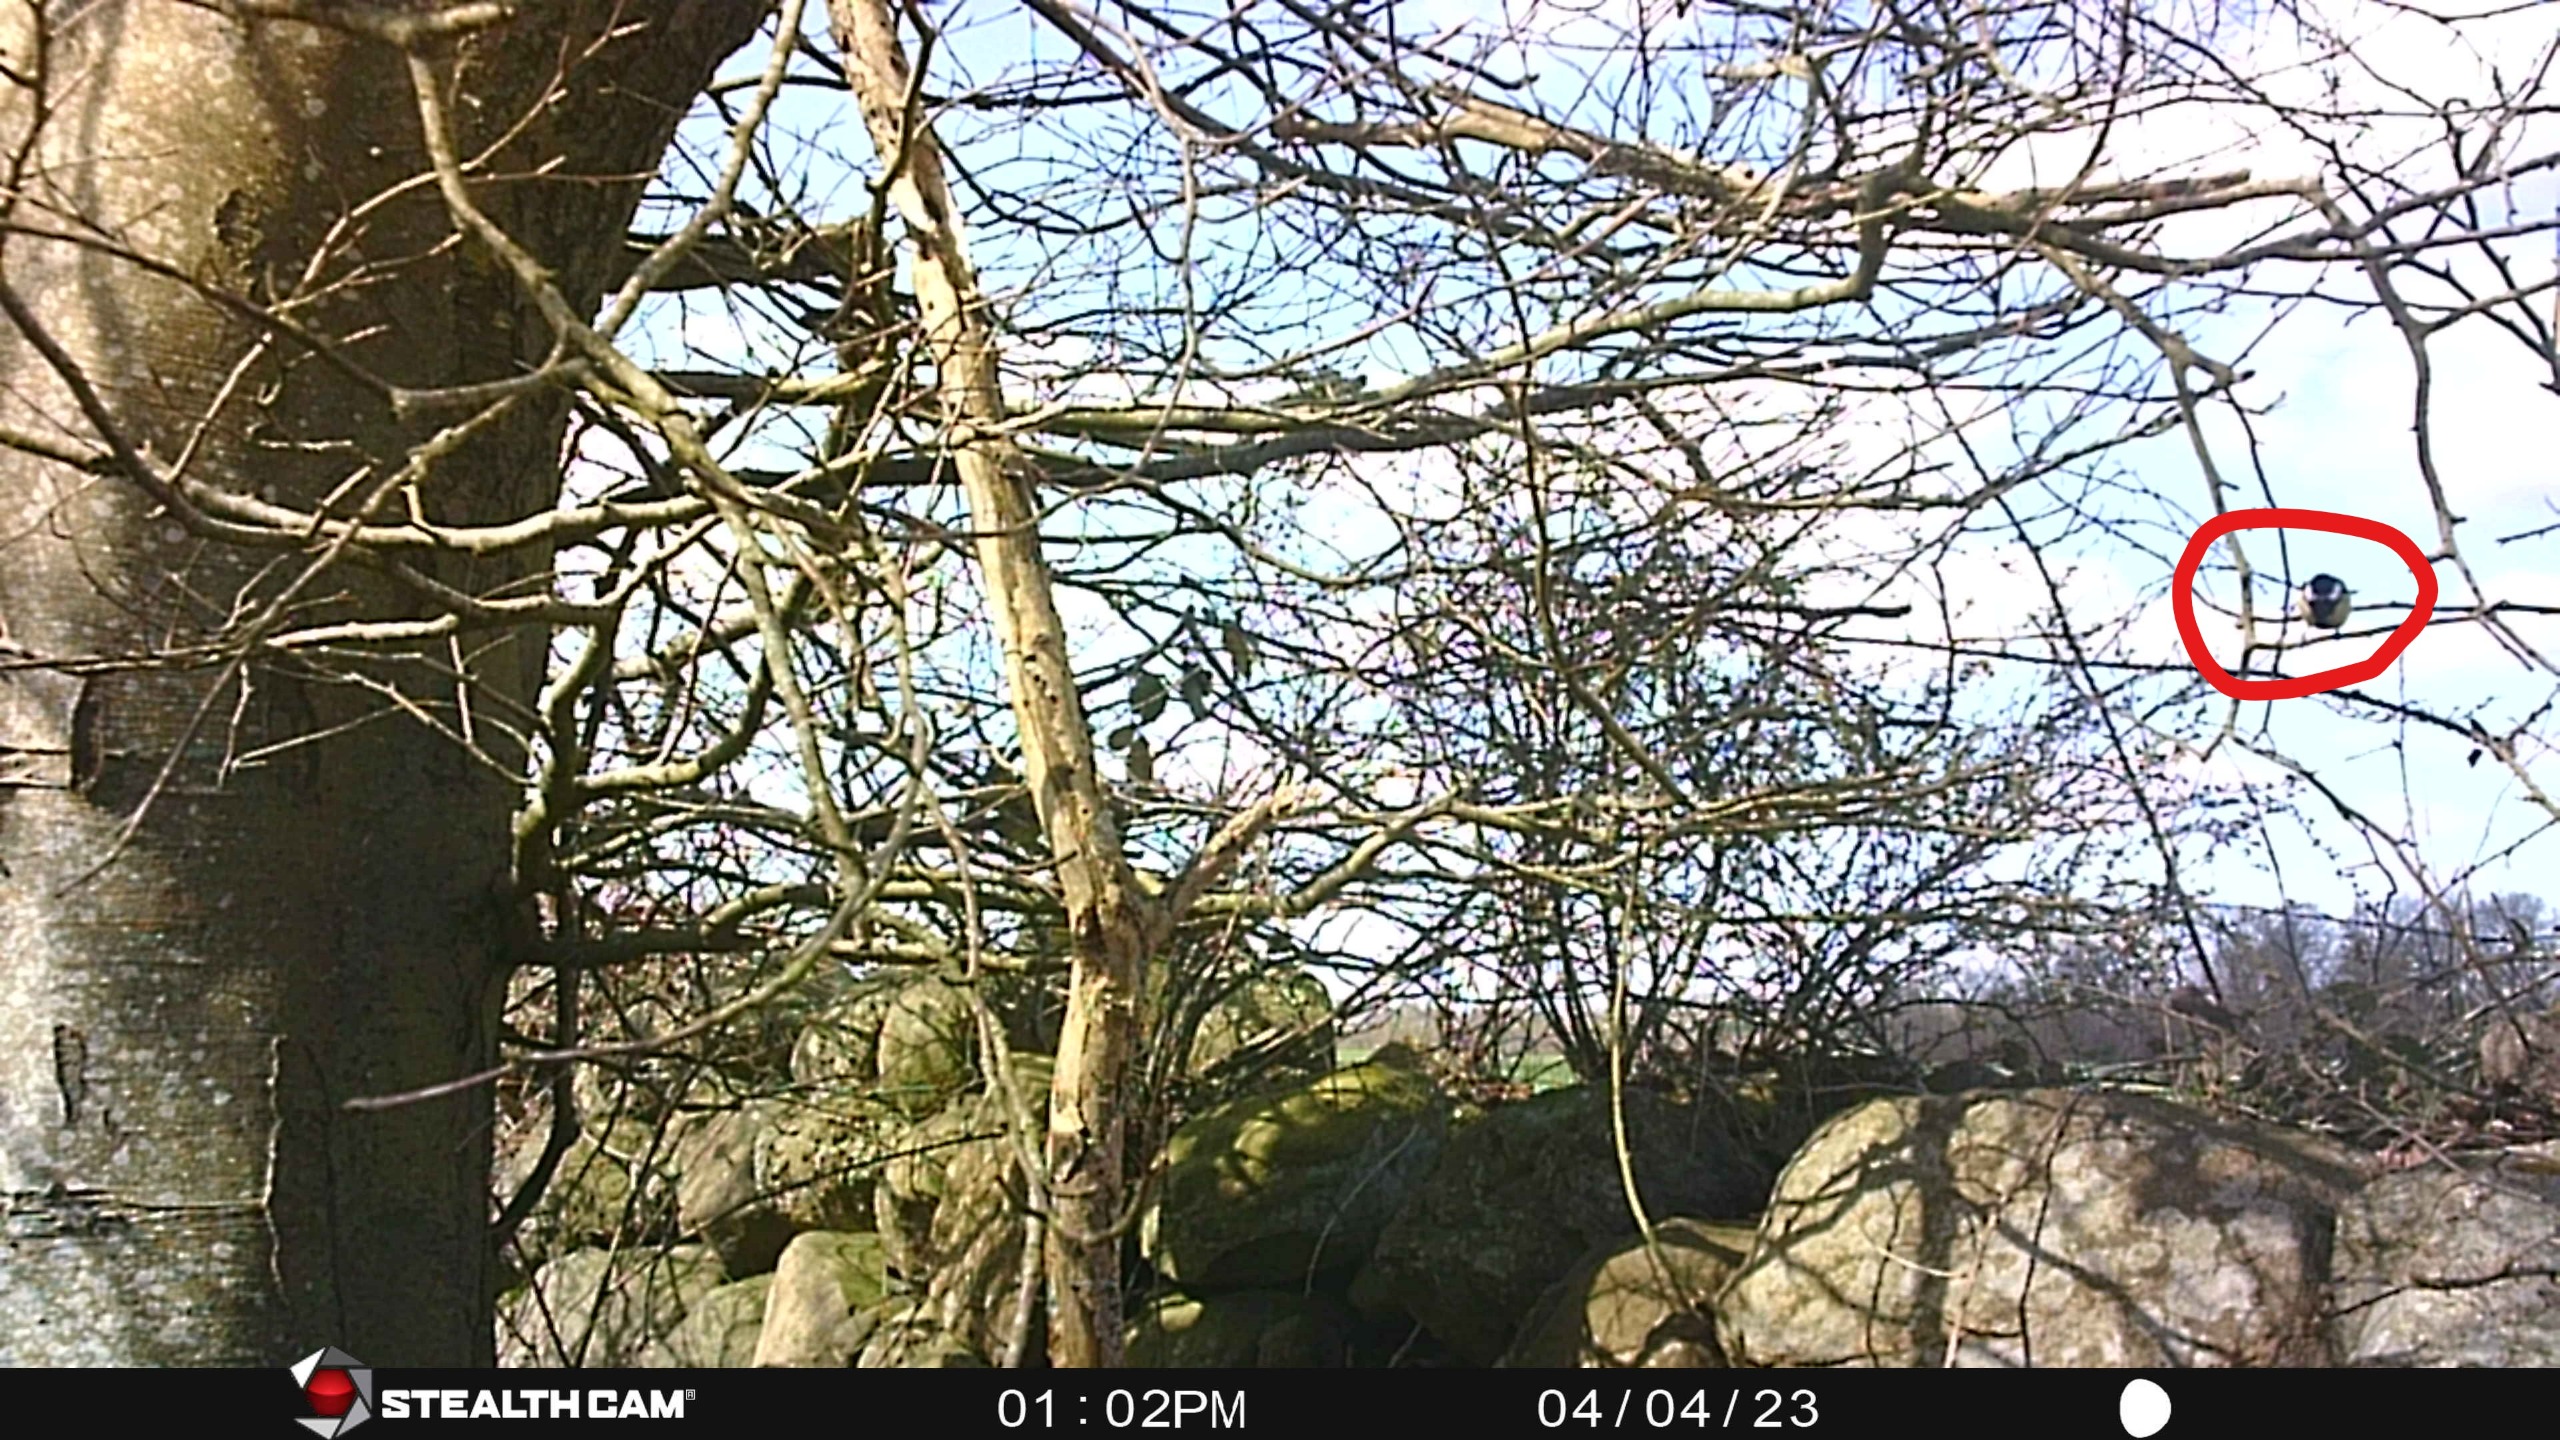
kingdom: Animalia
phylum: Chordata
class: Aves
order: Passeriformes
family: Paridae
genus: Parus
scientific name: Parus major
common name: Musvit
